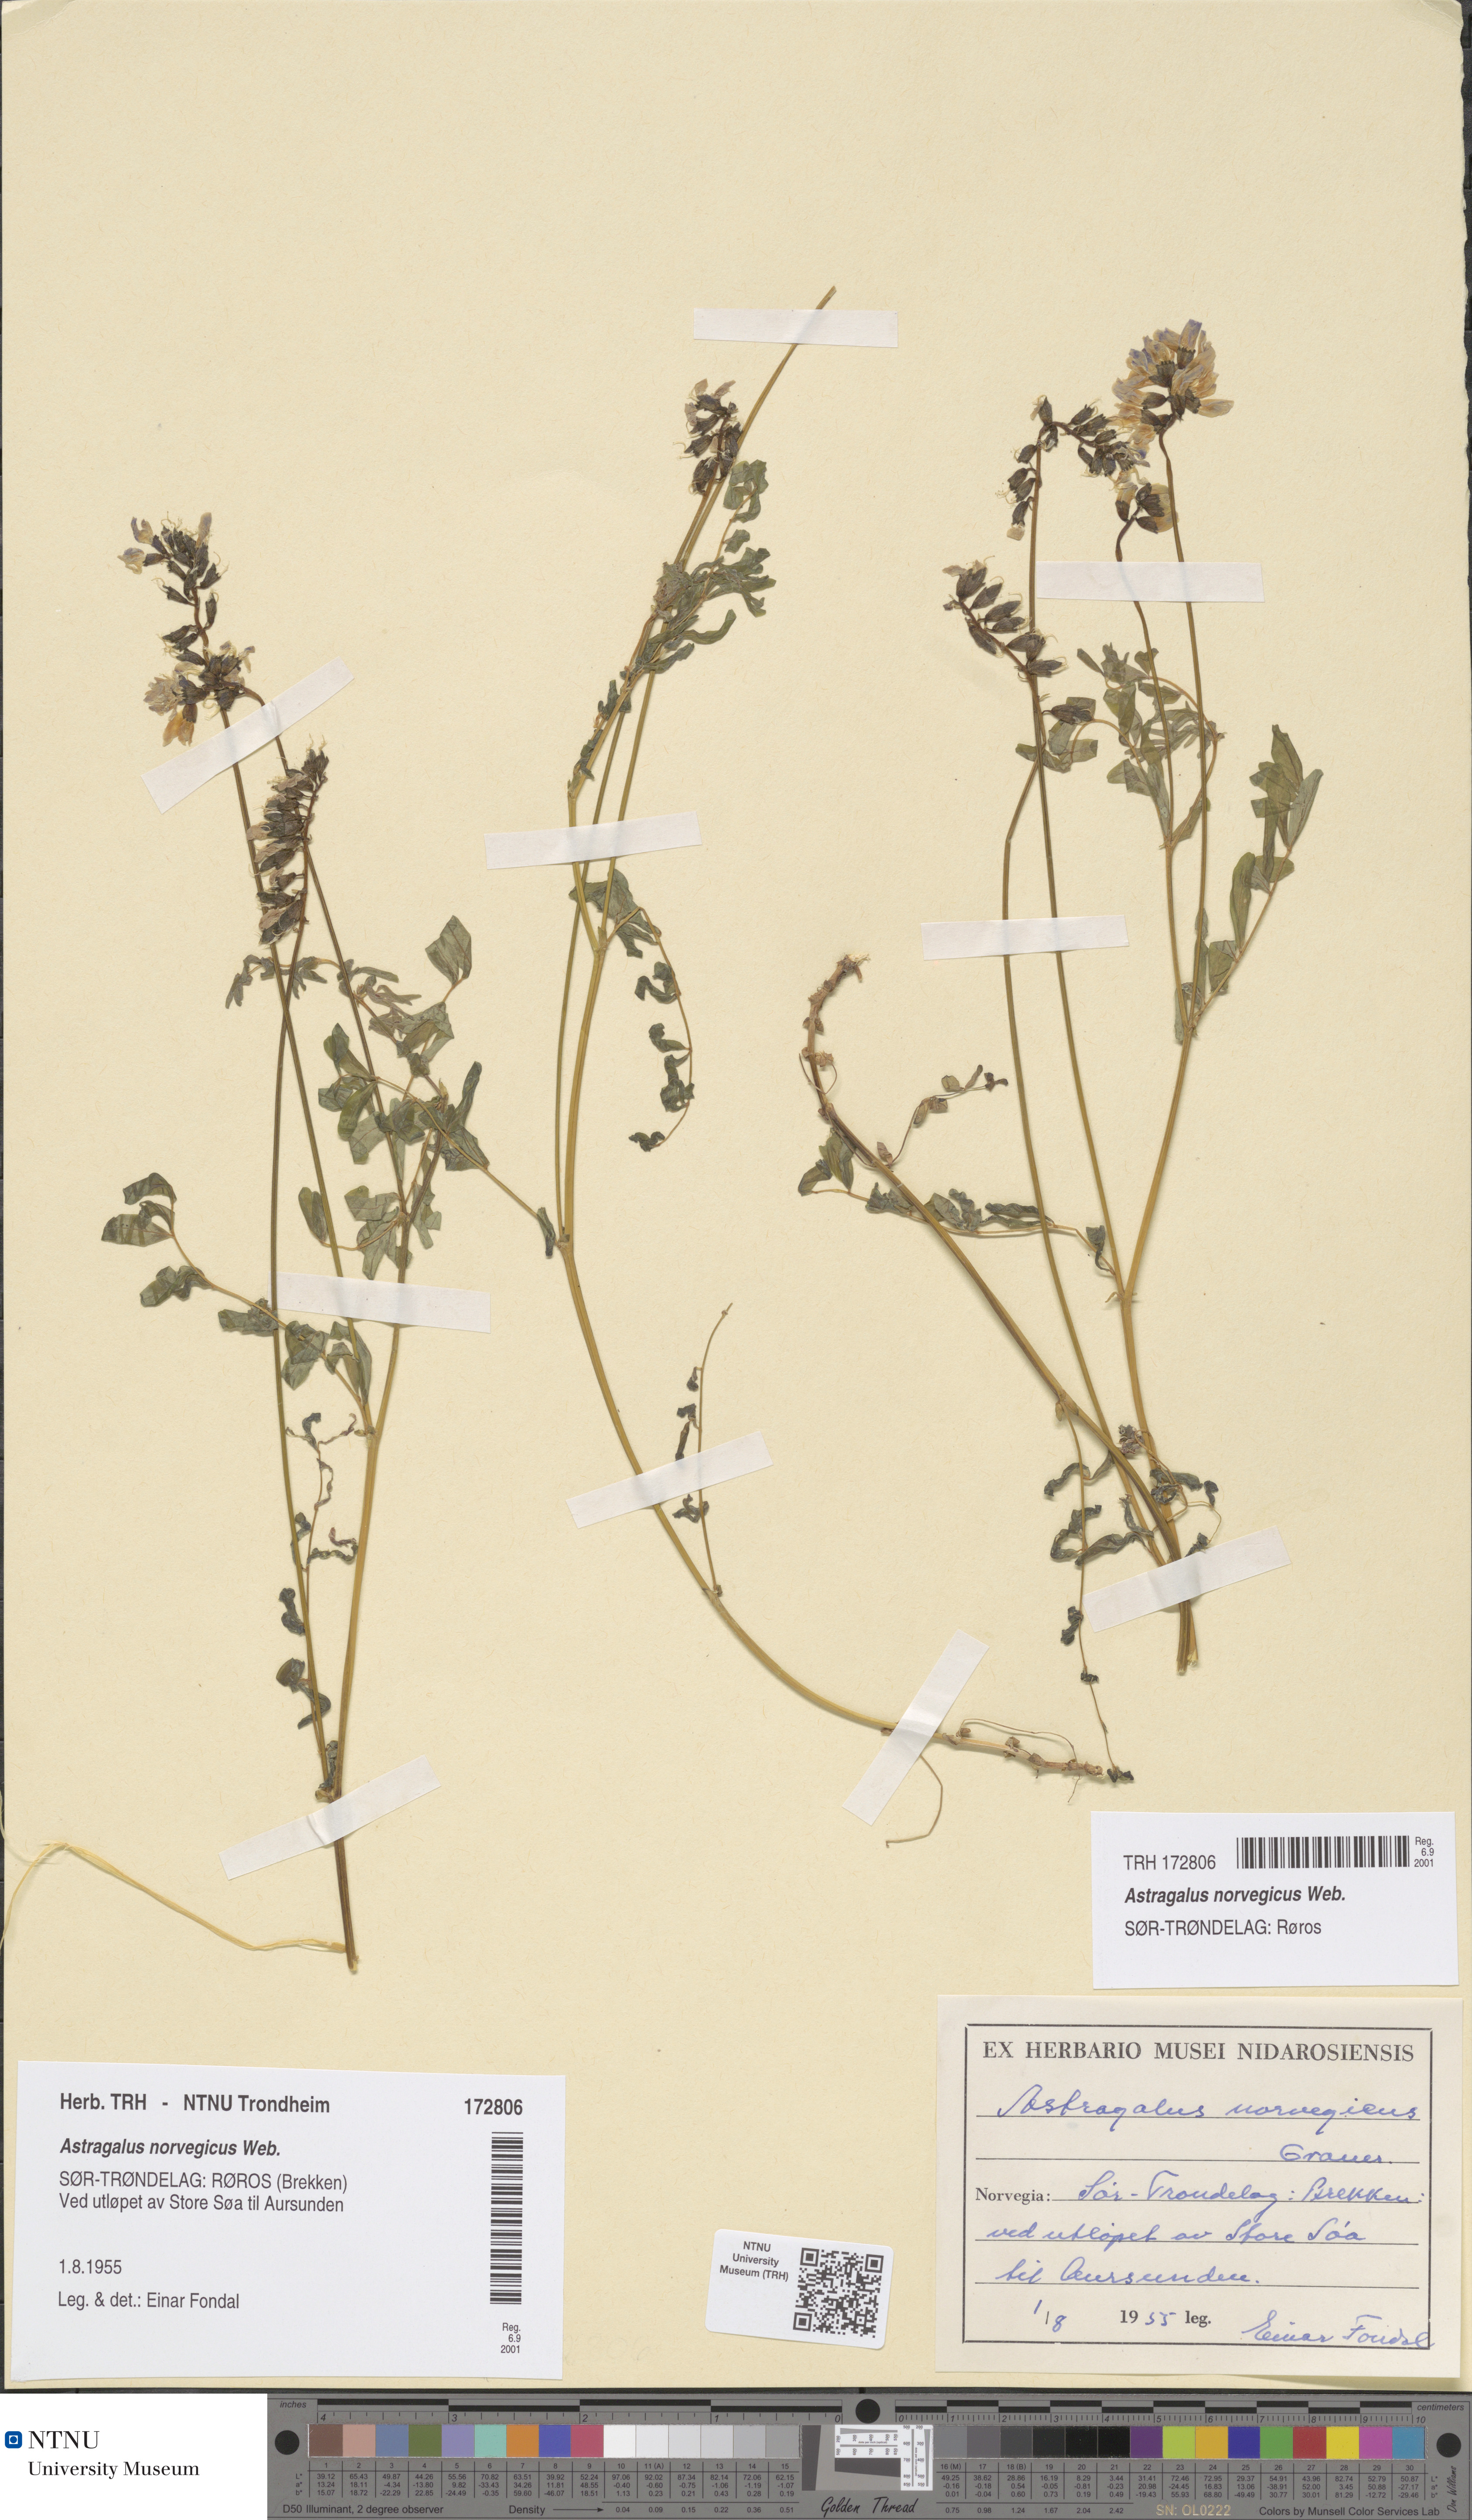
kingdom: Plantae
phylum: Tracheophyta
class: Magnoliopsida
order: Fabales
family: Fabaceae
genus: Astragalus
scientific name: Astragalus norvegicus
